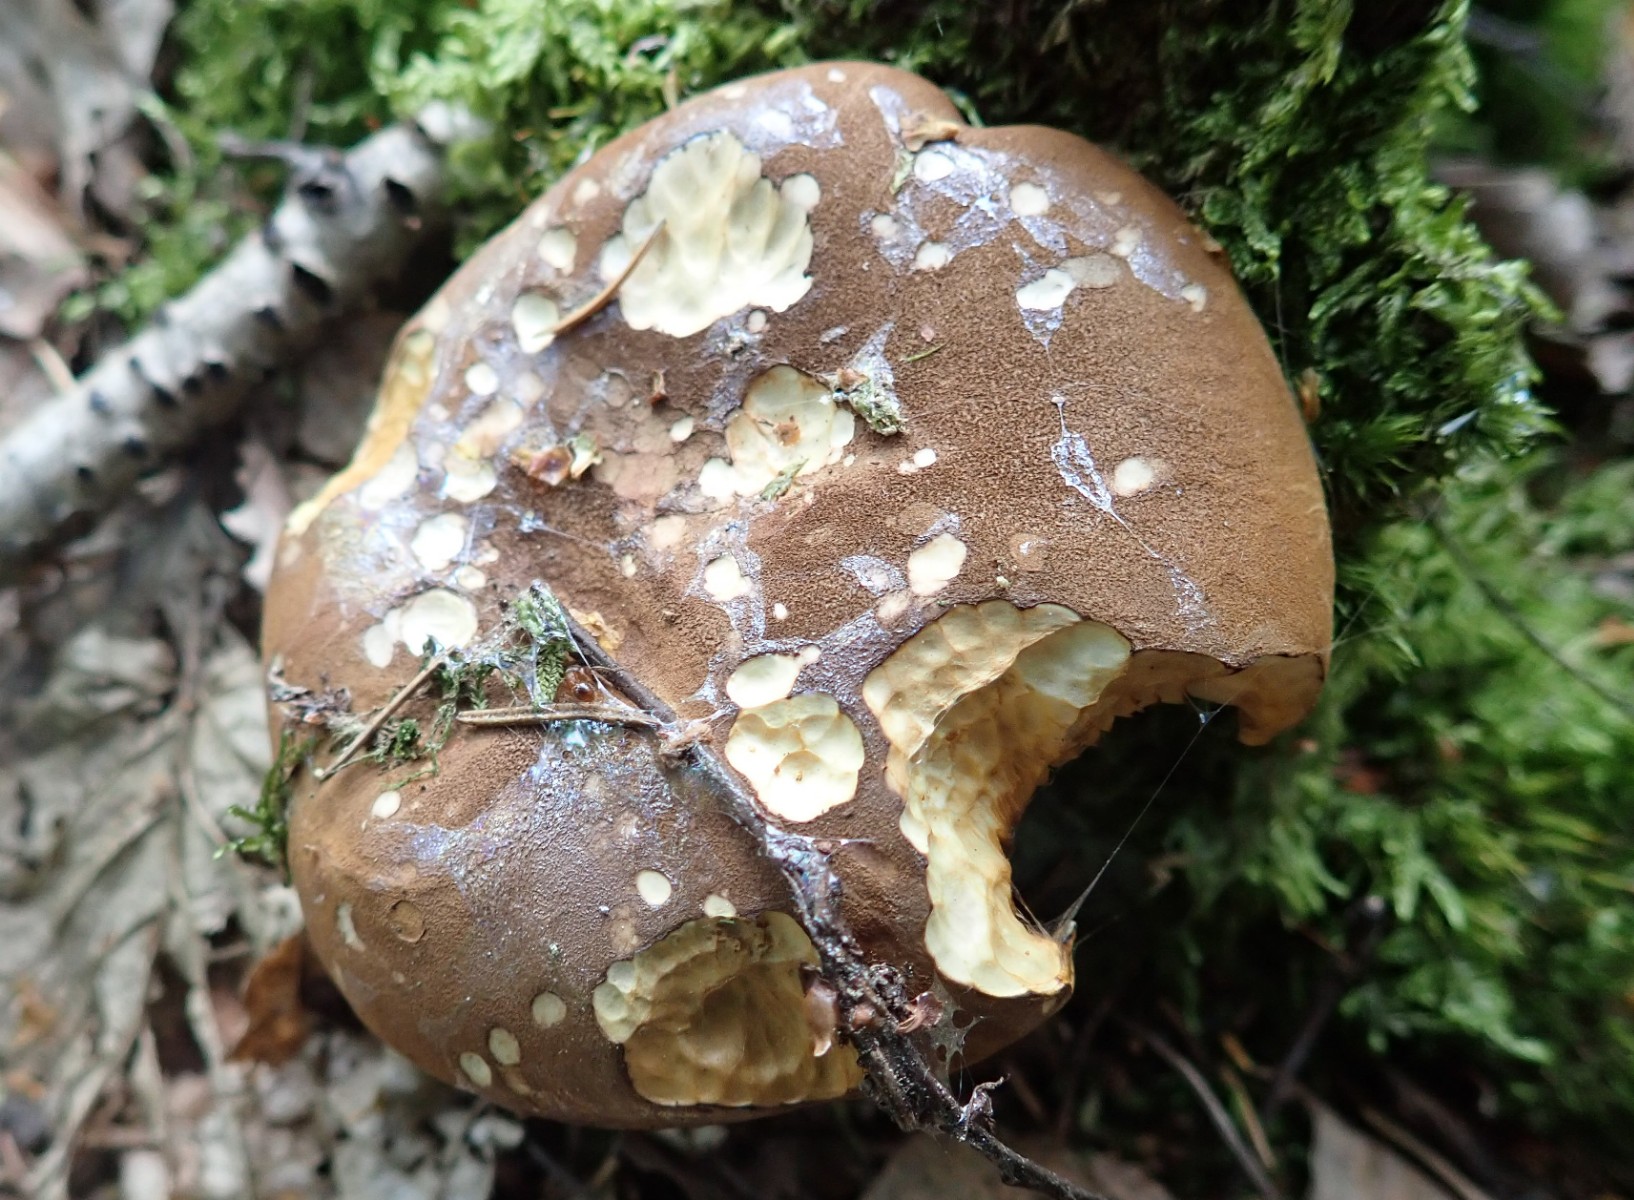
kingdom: Fungi
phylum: Basidiomycota
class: Agaricomycetes
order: Boletales
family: Tapinellaceae
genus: Tapinella
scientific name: Tapinella atrotomentosa
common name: sortfiltet viftesvamp
